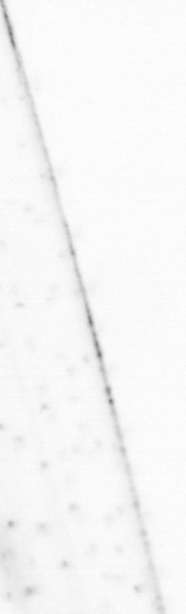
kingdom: Animalia
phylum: Chaetognatha
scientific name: Chaetognatha
